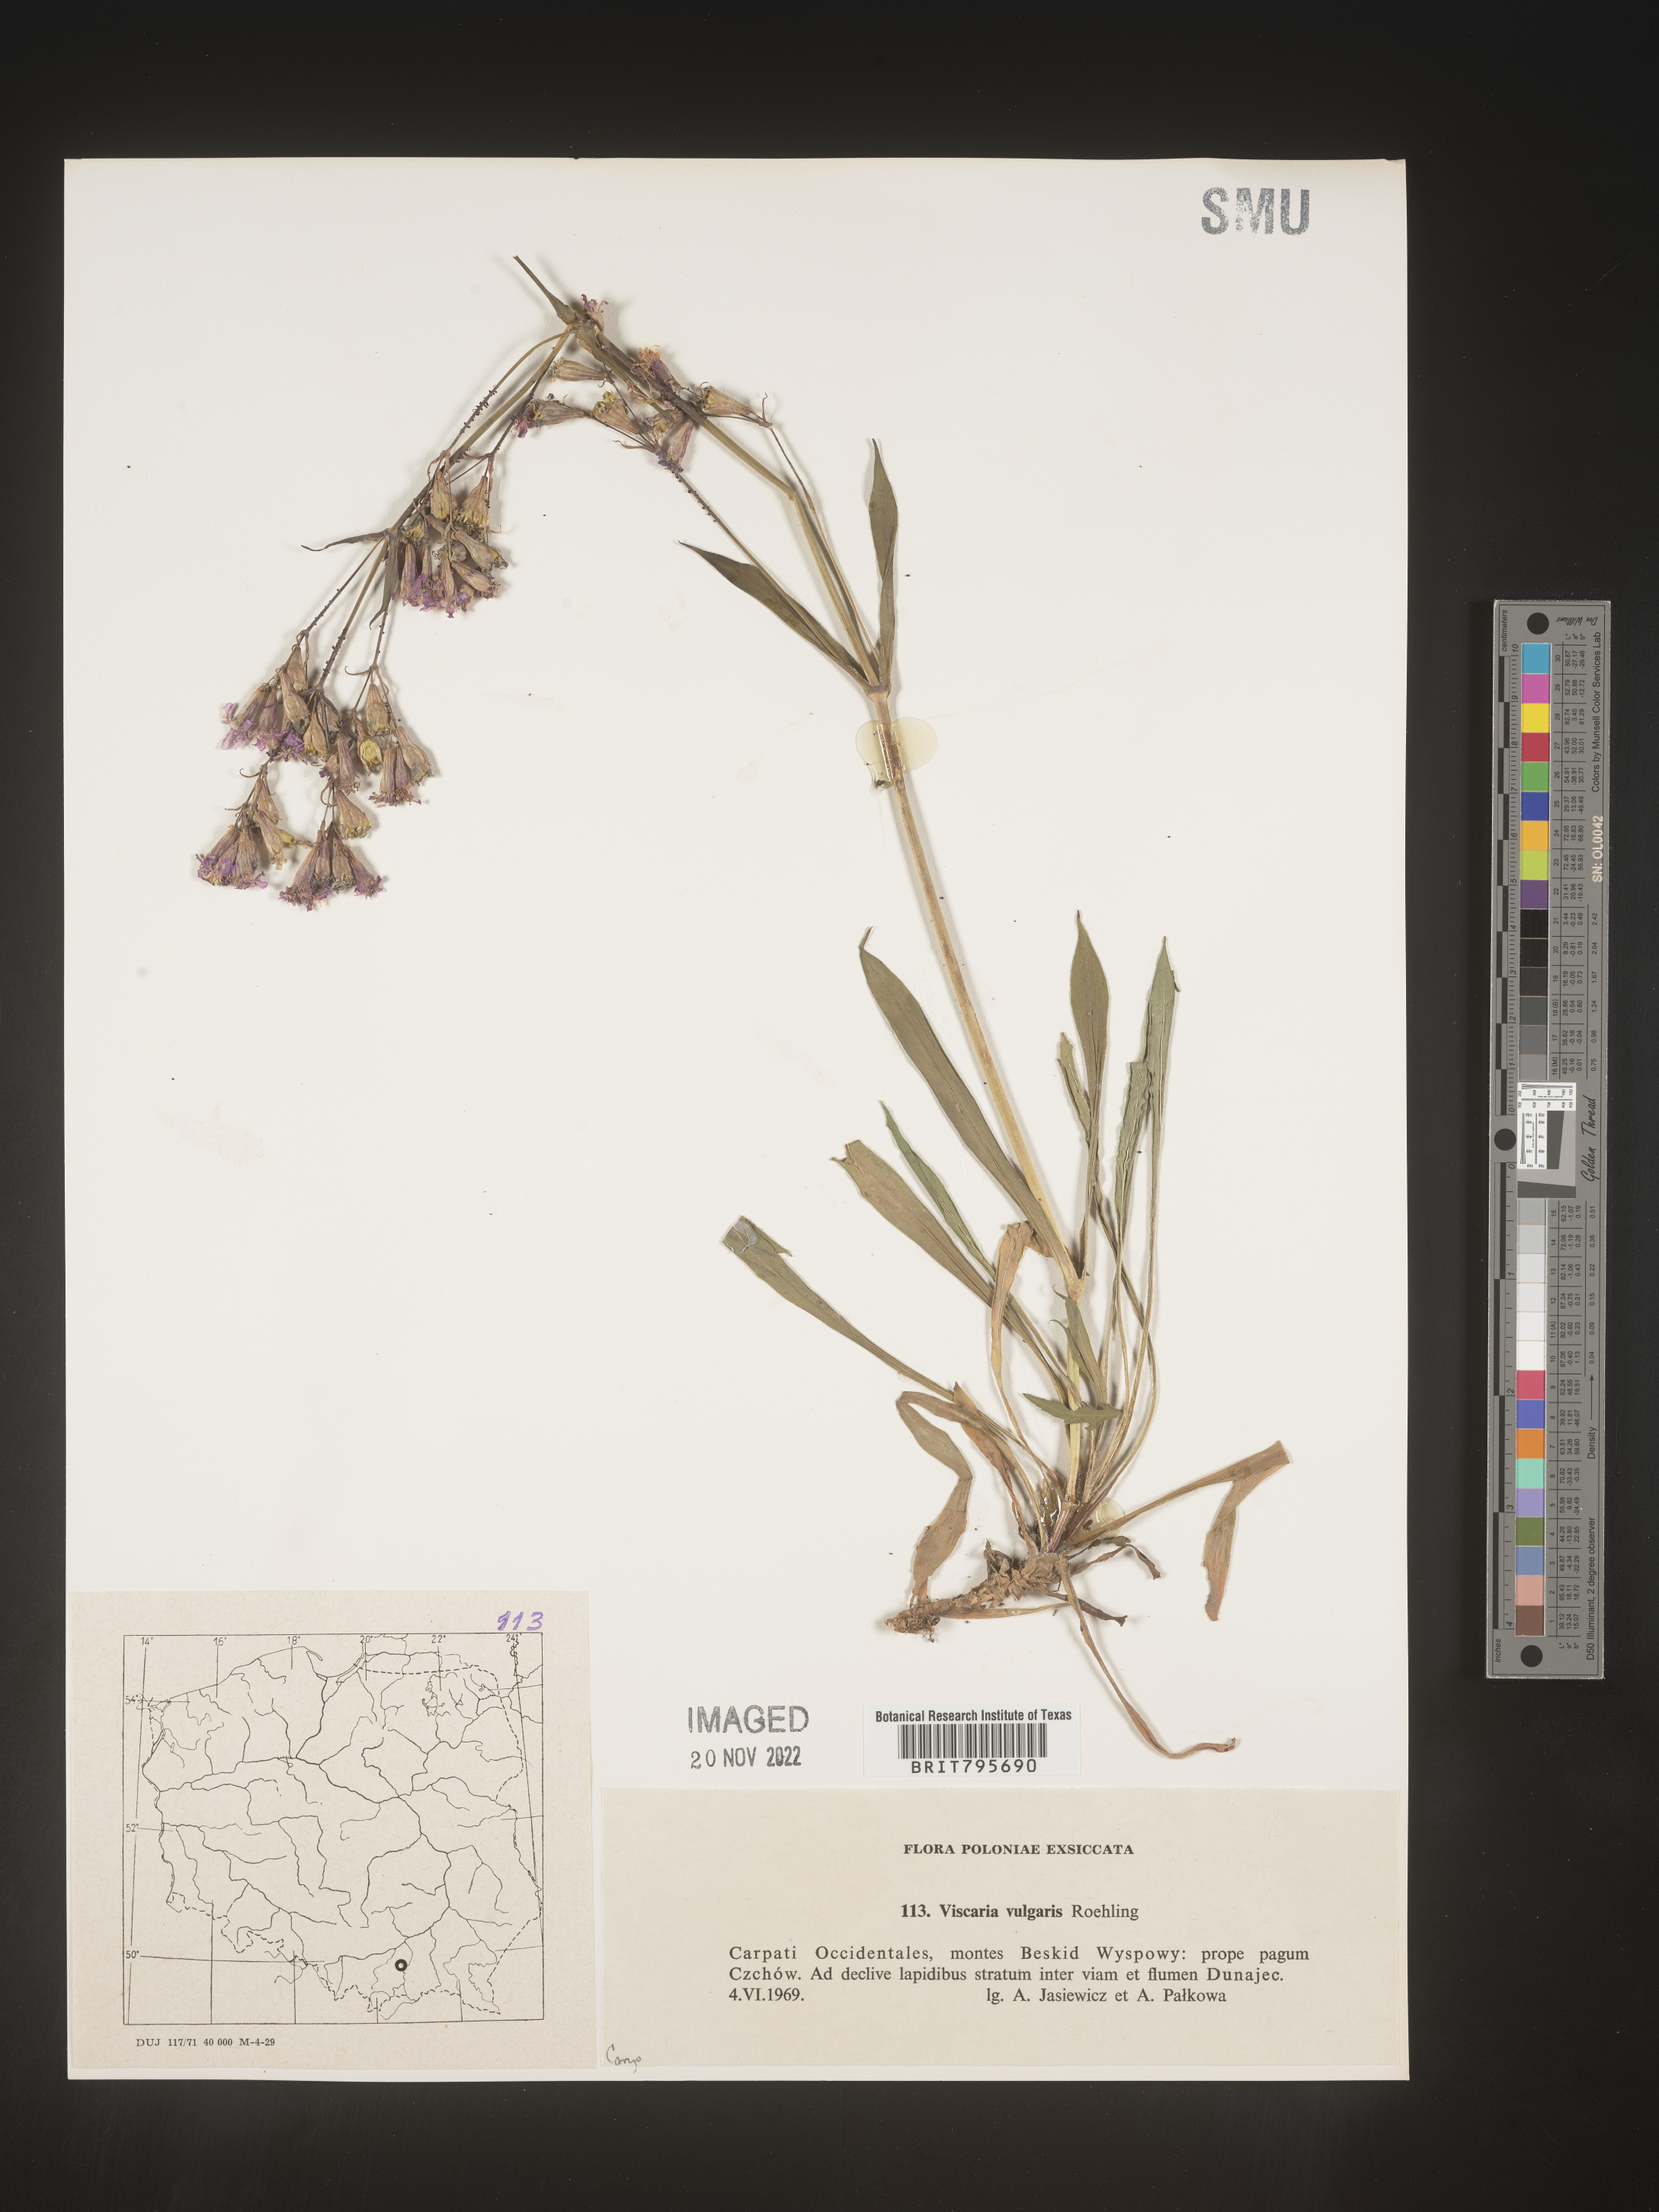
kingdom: Plantae
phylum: Tracheophyta
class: Magnoliopsida
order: Caryophyllales
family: Caryophyllaceae
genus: Viscaria
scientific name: Viscaria
